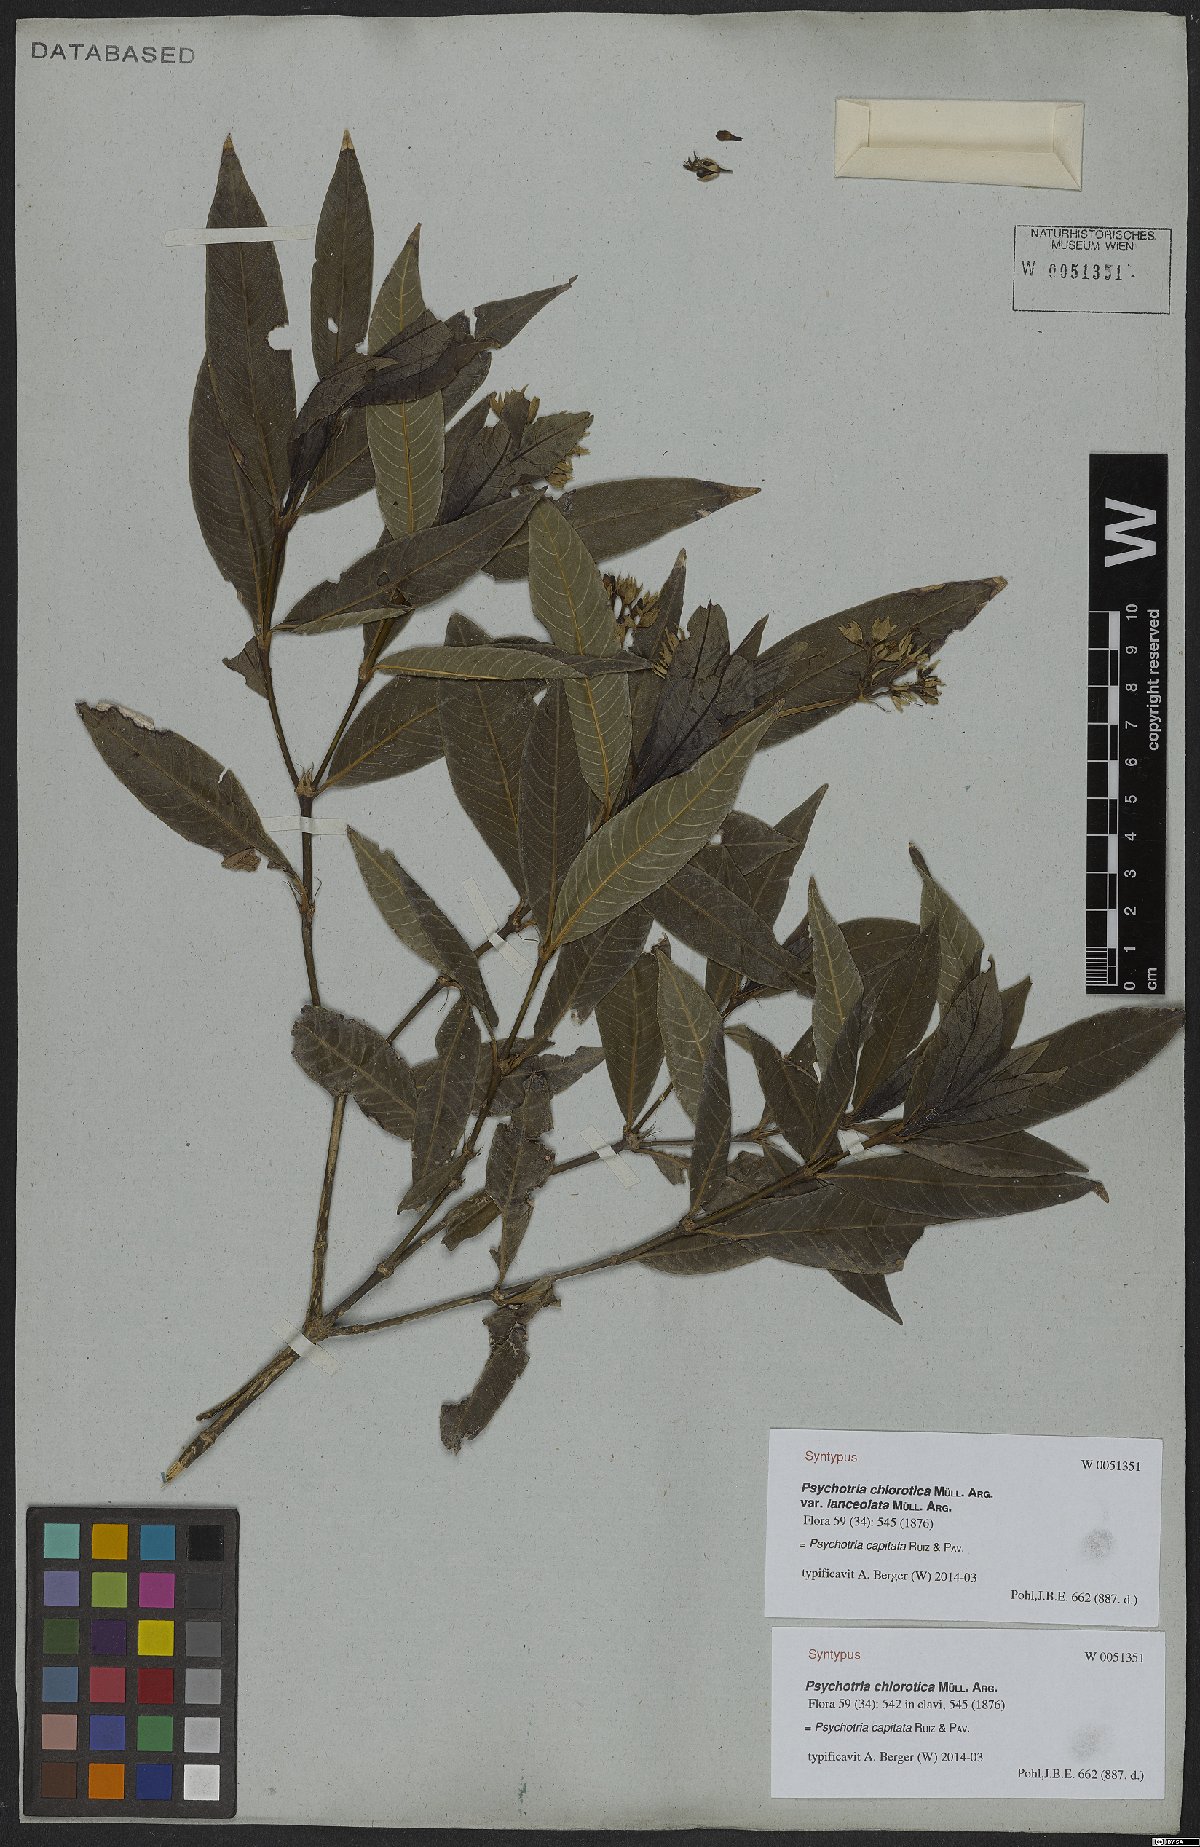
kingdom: Plantae
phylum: Tracheophyta
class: Magnoliopsida
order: Gentianales
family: Rubiaceae
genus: Palicourea
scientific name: Palicourea violacea
